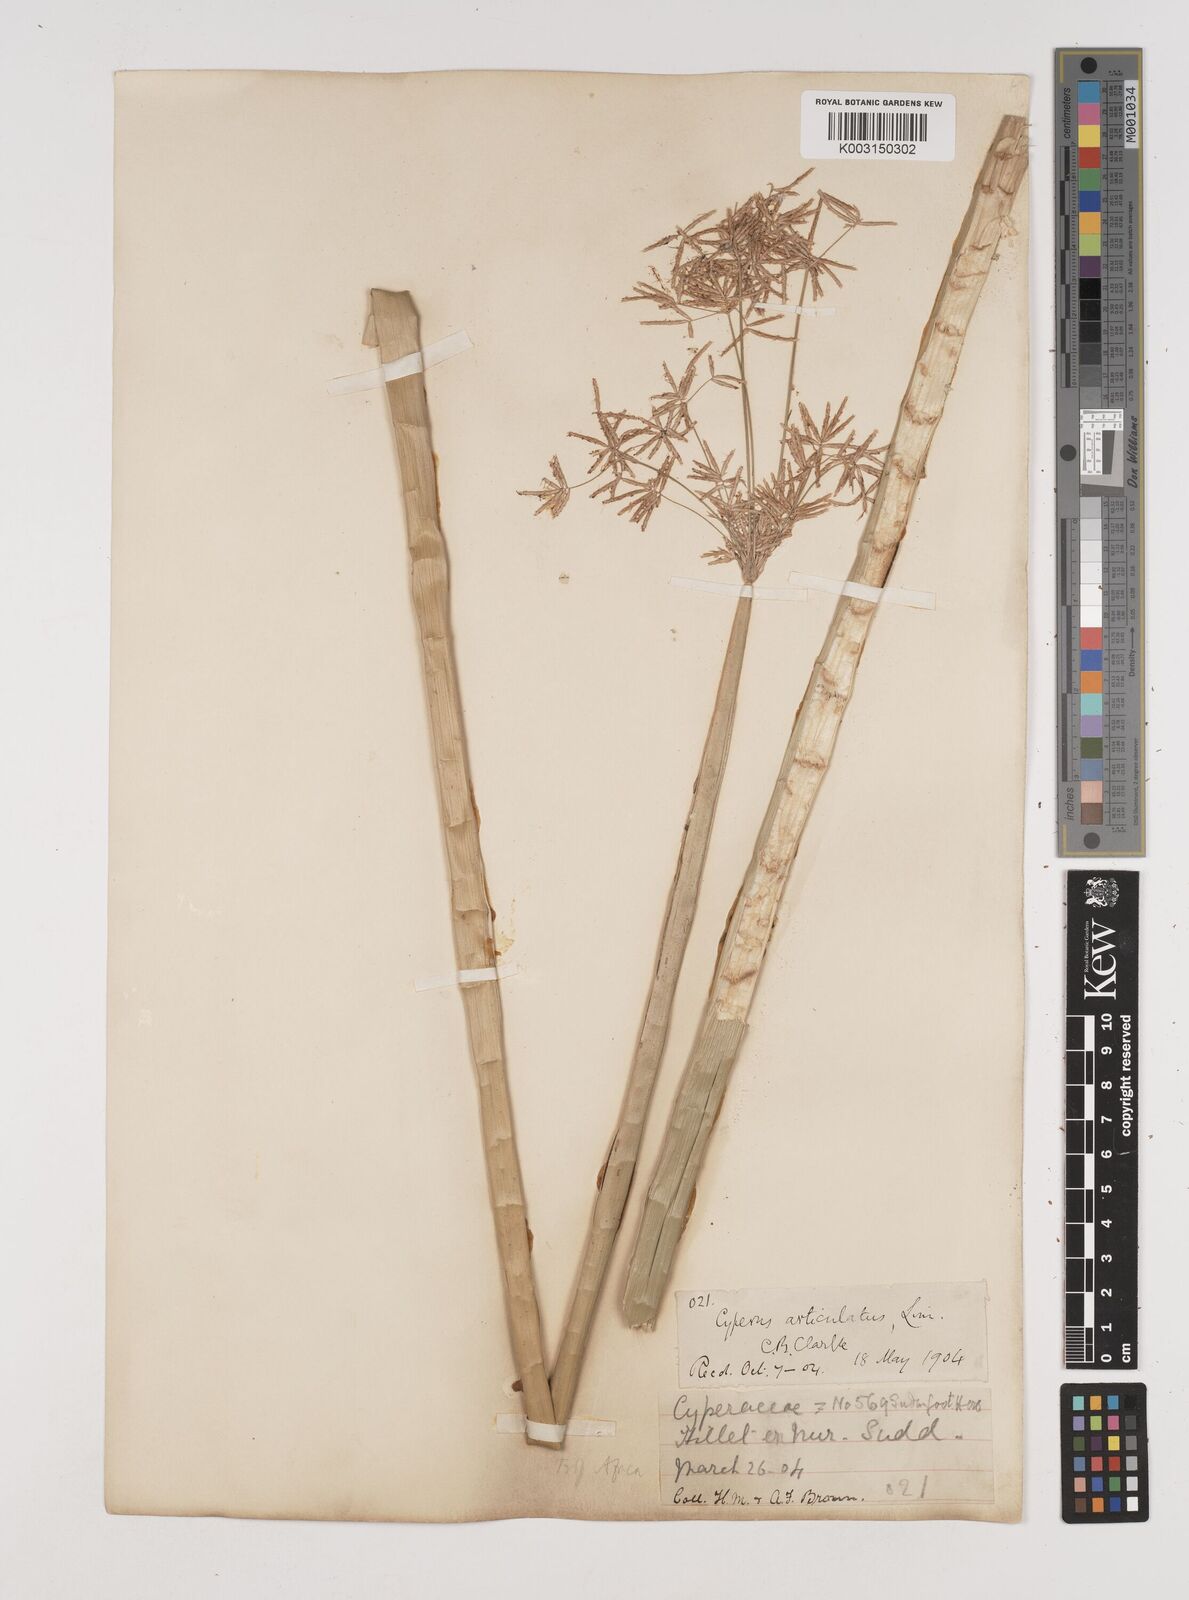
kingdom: Plantae
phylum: Tracheophyta
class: Liliopsida
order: Poales
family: Cyperaceae
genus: Cyperus
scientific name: Cyperus articulatus
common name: Jointed flatsedge
